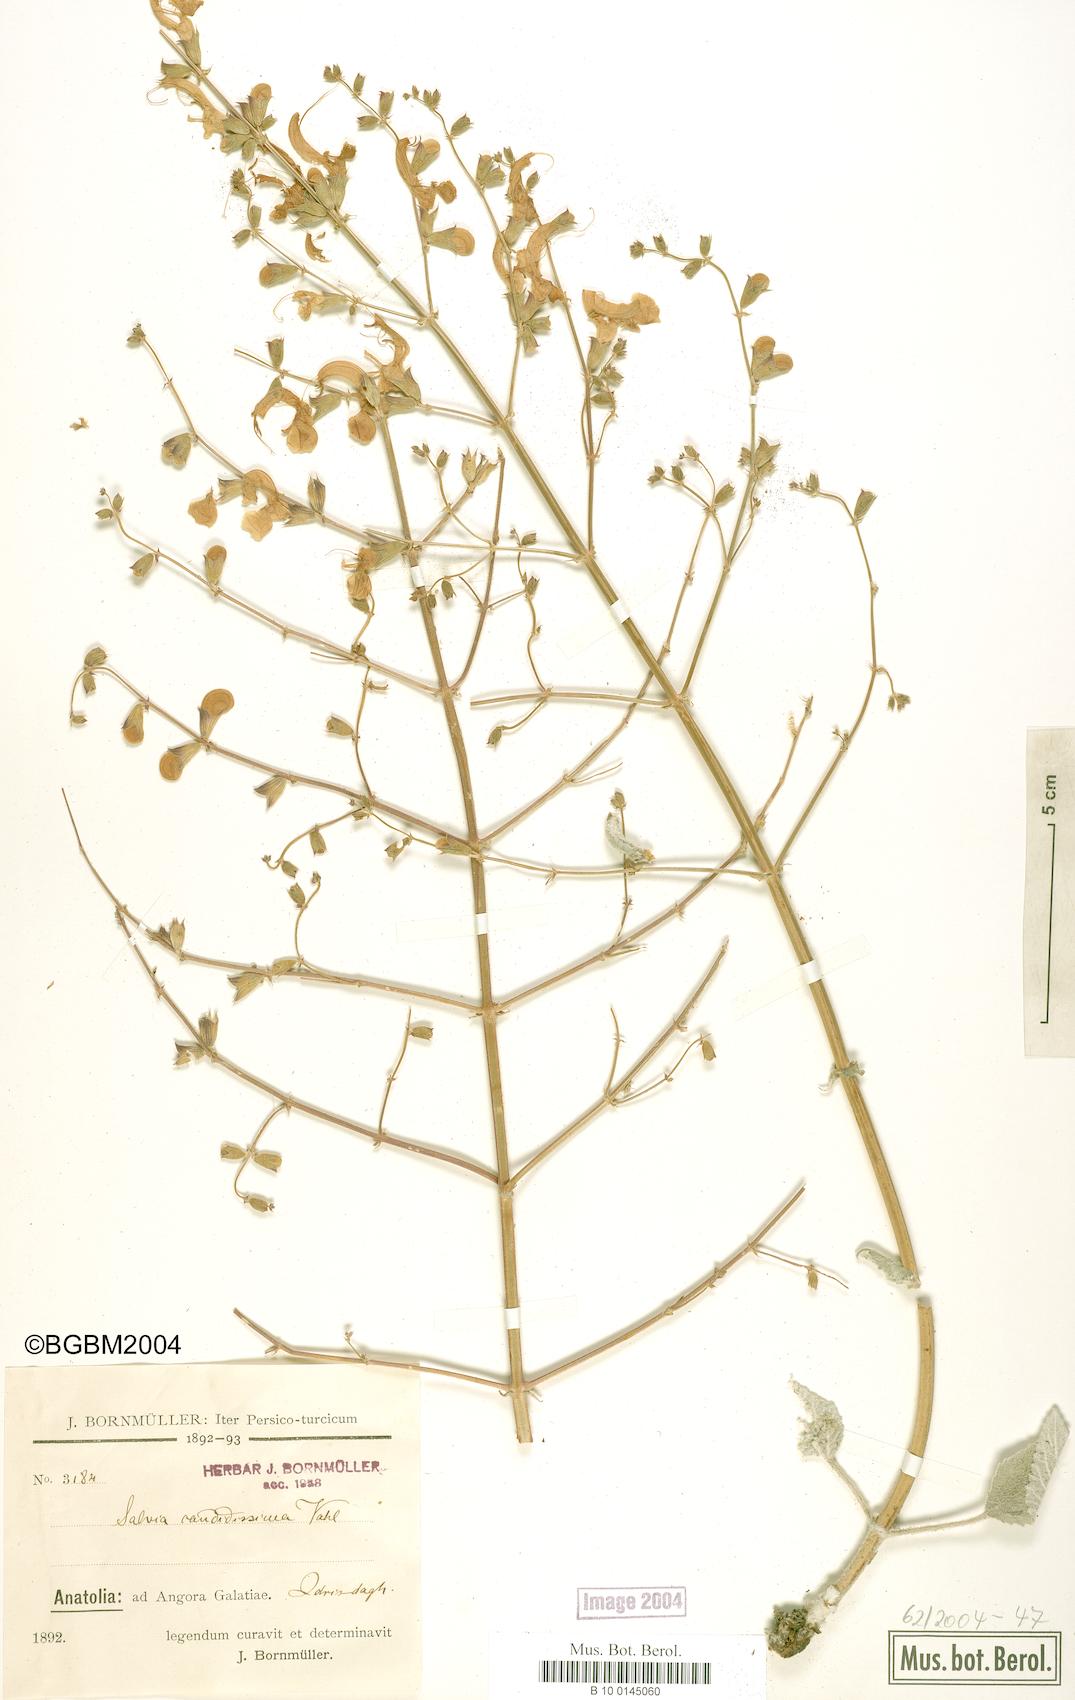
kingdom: Plantae
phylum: Tracheophyta
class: Magnoliopsida
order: Lamiales
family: Lamiaceae
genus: Salvia
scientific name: Salvia candidissima
